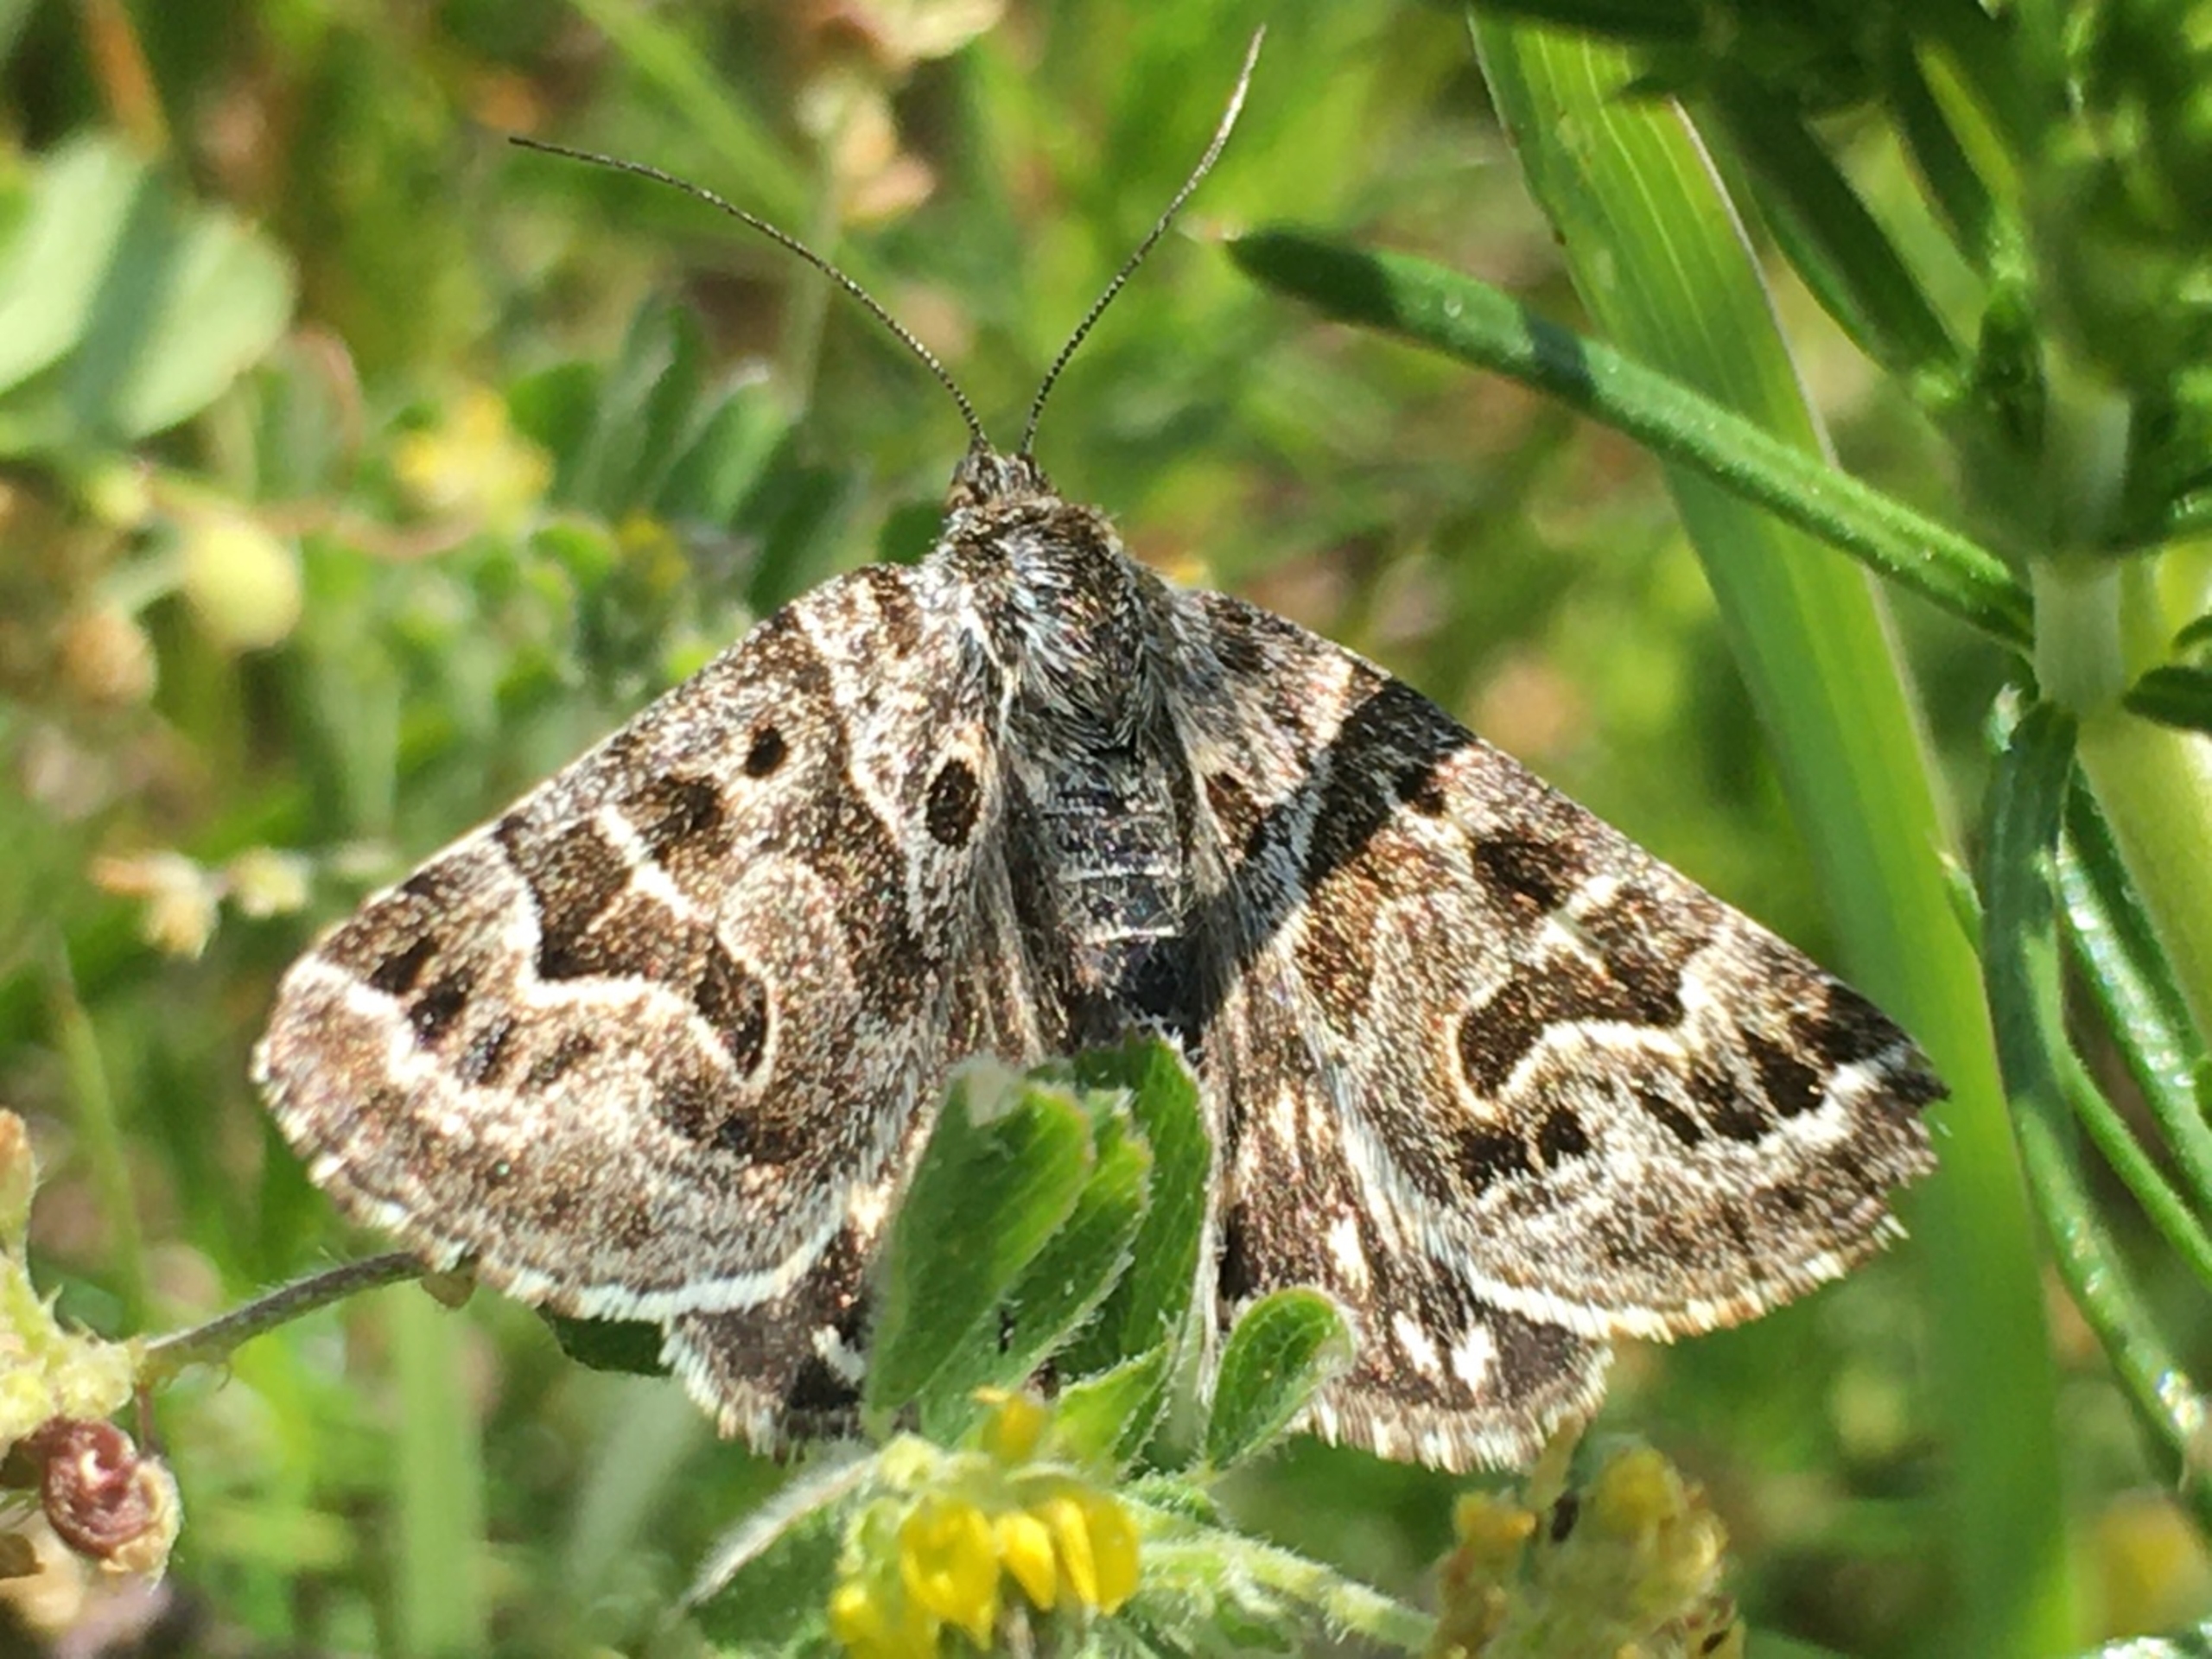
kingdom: Animalia
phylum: Arthropoda
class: Insecta
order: Lepidoptera
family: Erebidae
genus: Callistege
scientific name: Callistege mi
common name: Marmoreret kløverugle
